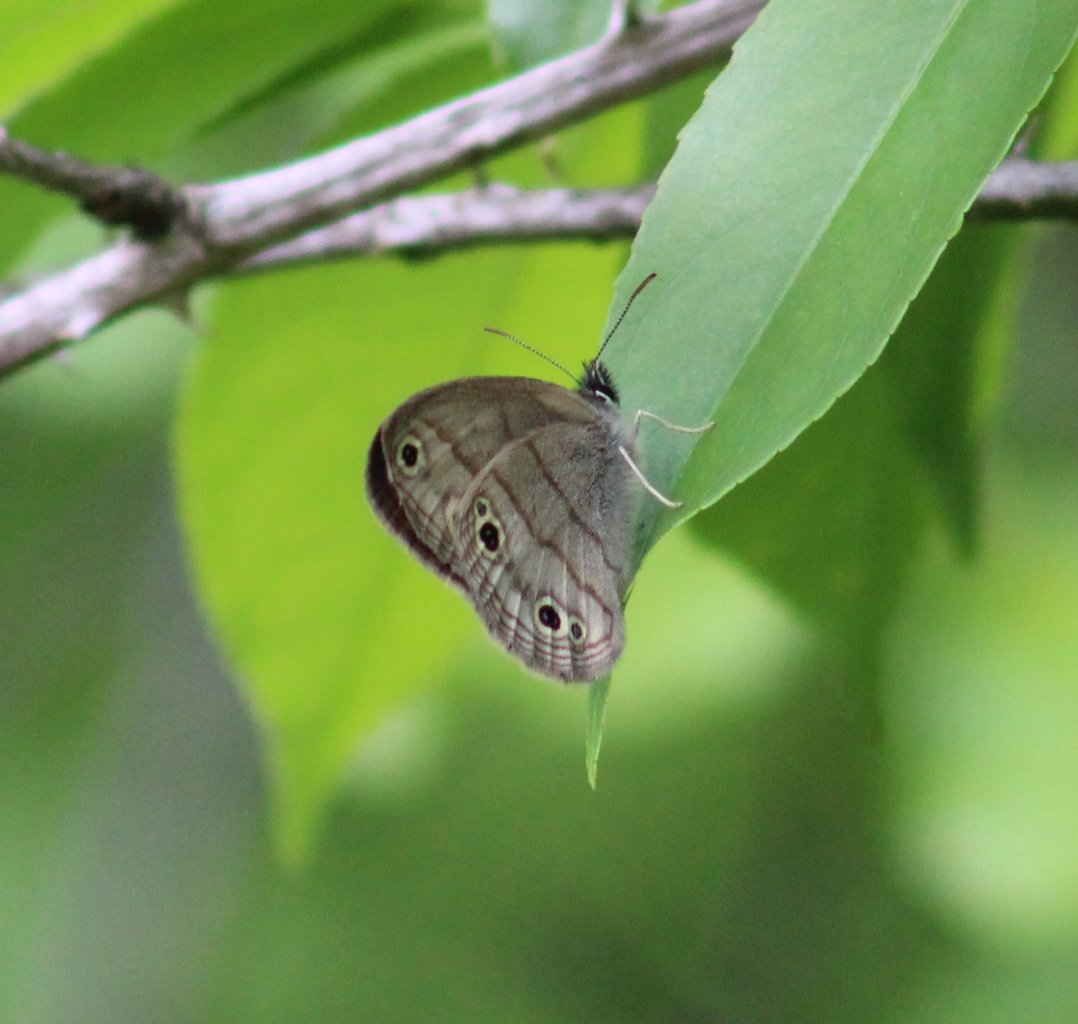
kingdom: Animalia
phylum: Arthropoda
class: Insecta
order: Lepidoptera
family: Nymphalidae
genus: Euptychia
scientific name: Euptychia cymela
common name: Little Wood Satyr
